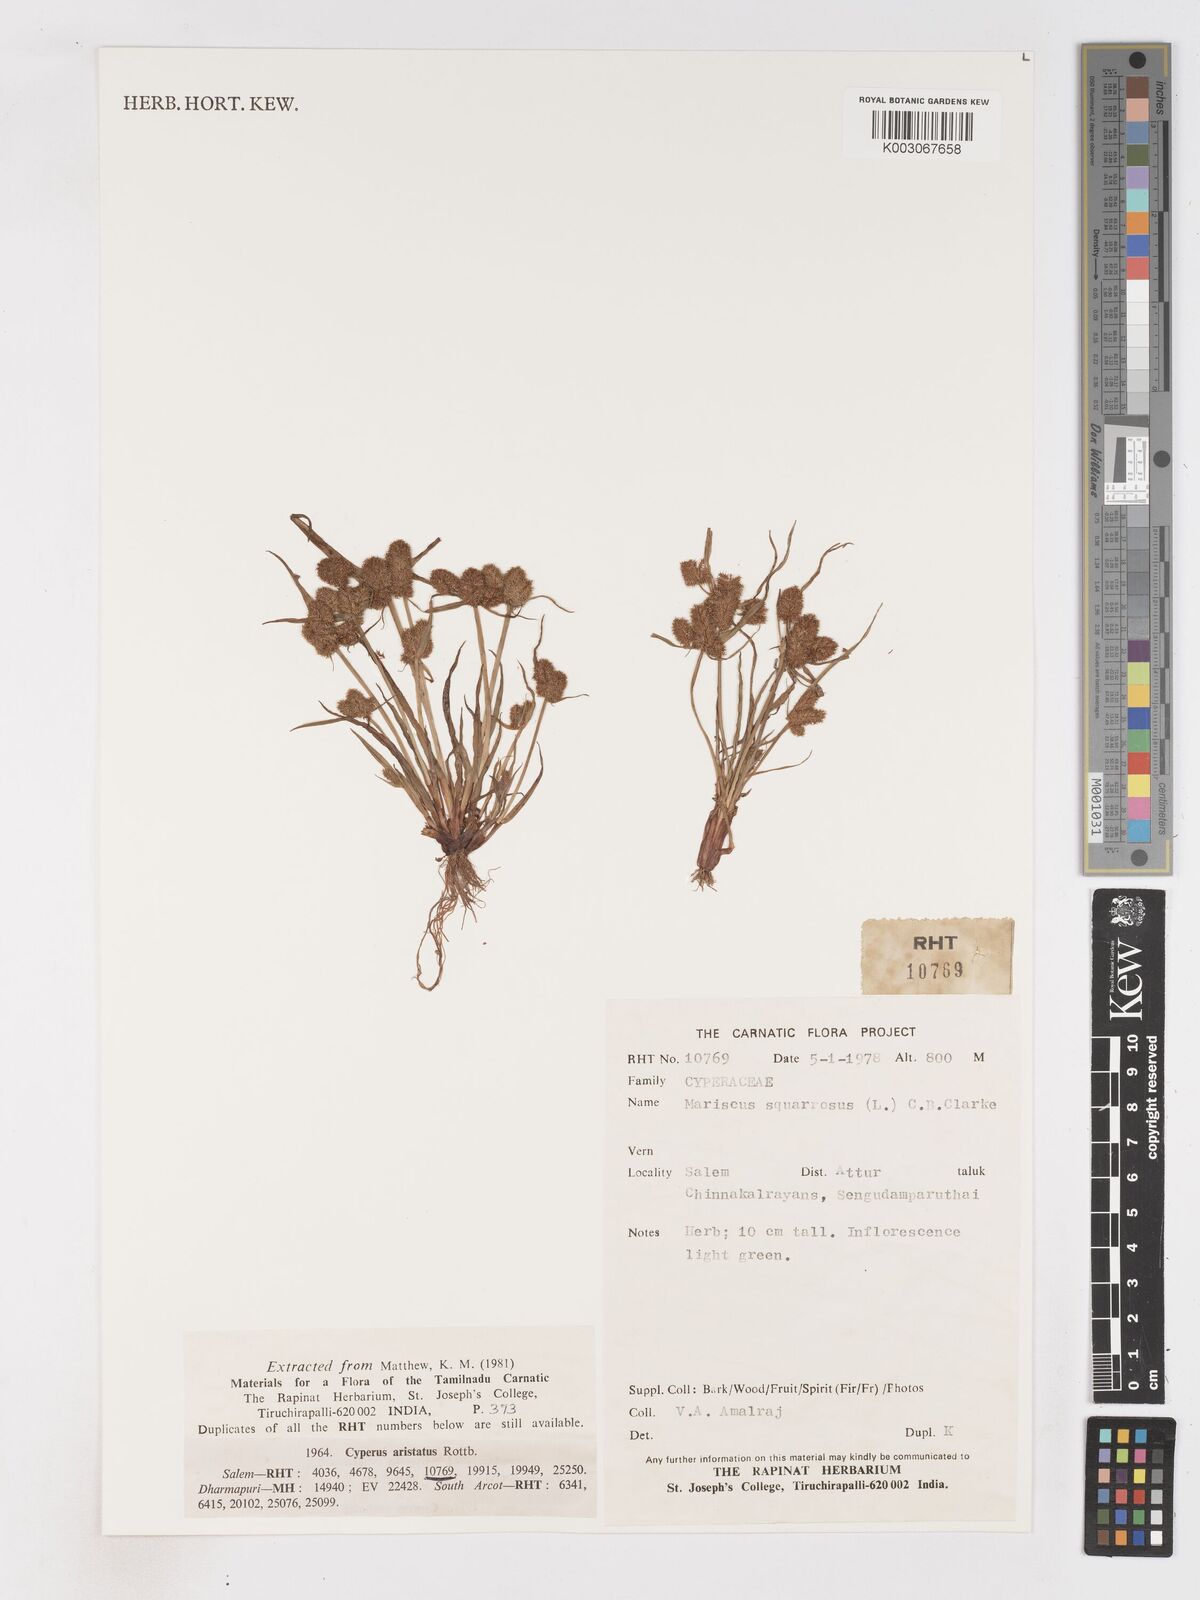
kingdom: Plantae
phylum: Tracheophyta
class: Liliopsida
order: Poales
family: Cyperaceae
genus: Cyperus
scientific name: Cyperus squarrosus
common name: Awned cyperus
